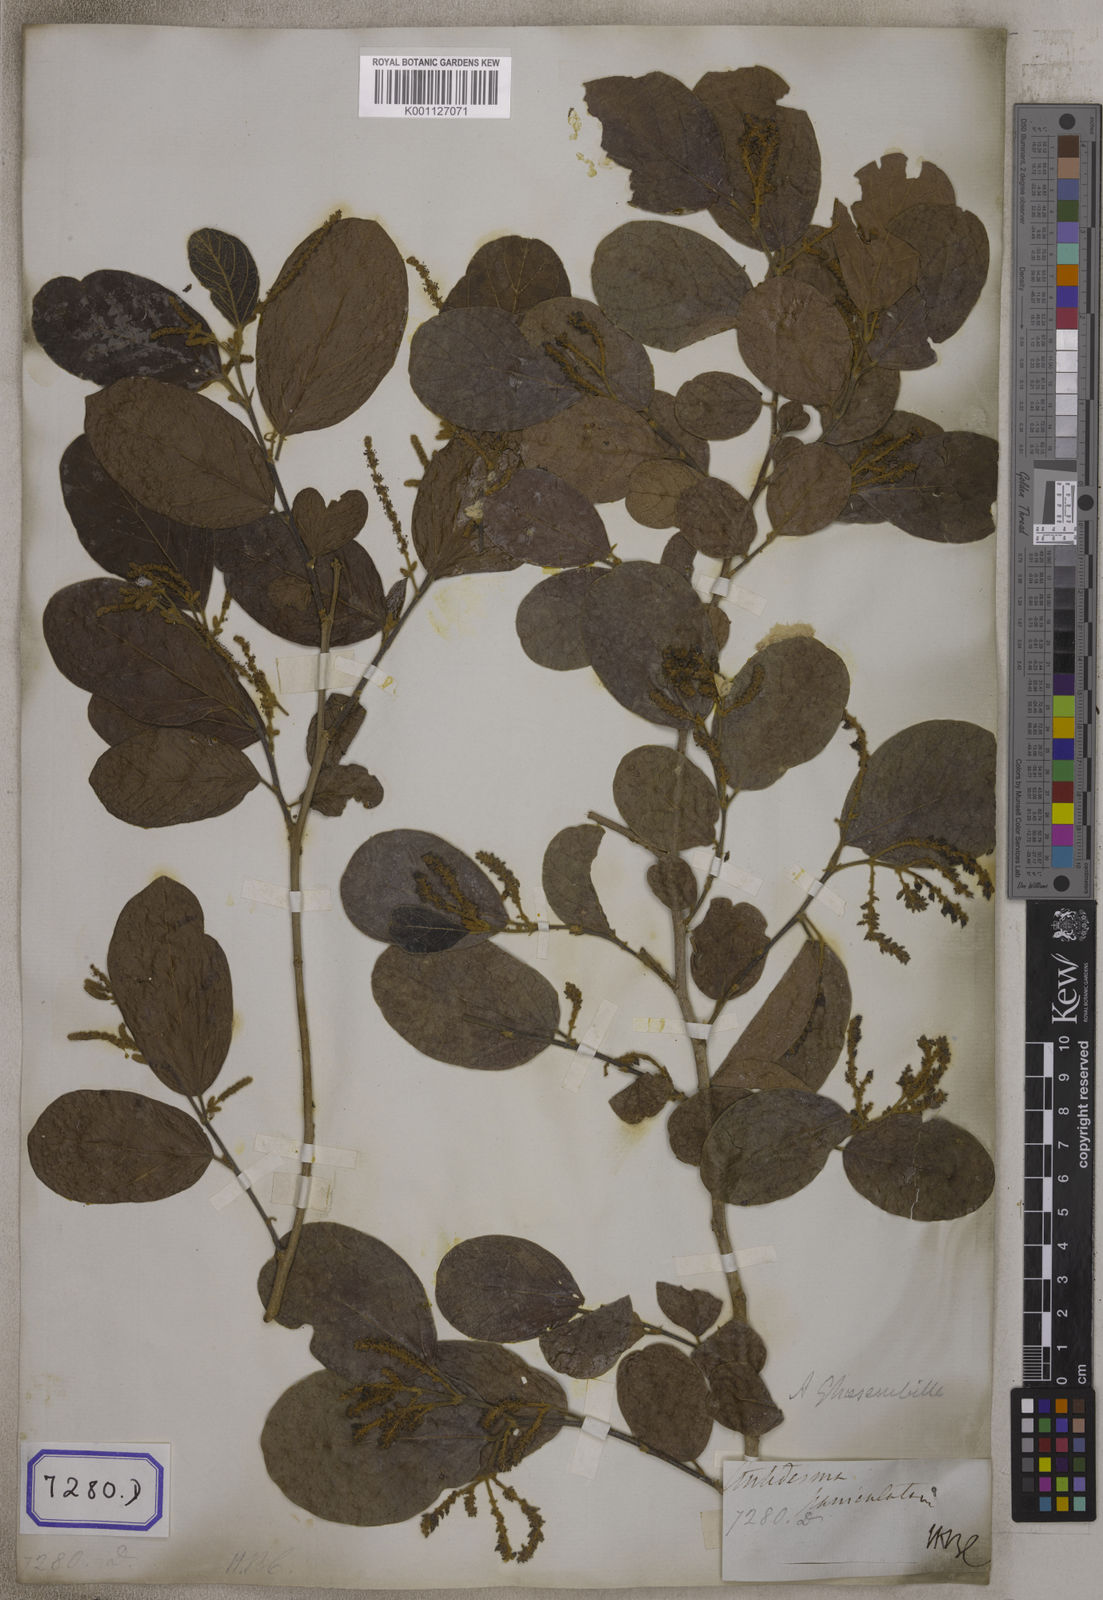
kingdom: Plantae
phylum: Tracheophyta
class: Magnoliopsida
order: Malpighiales
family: Phyllanthaceae
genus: Antidesma
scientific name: Antidesma
